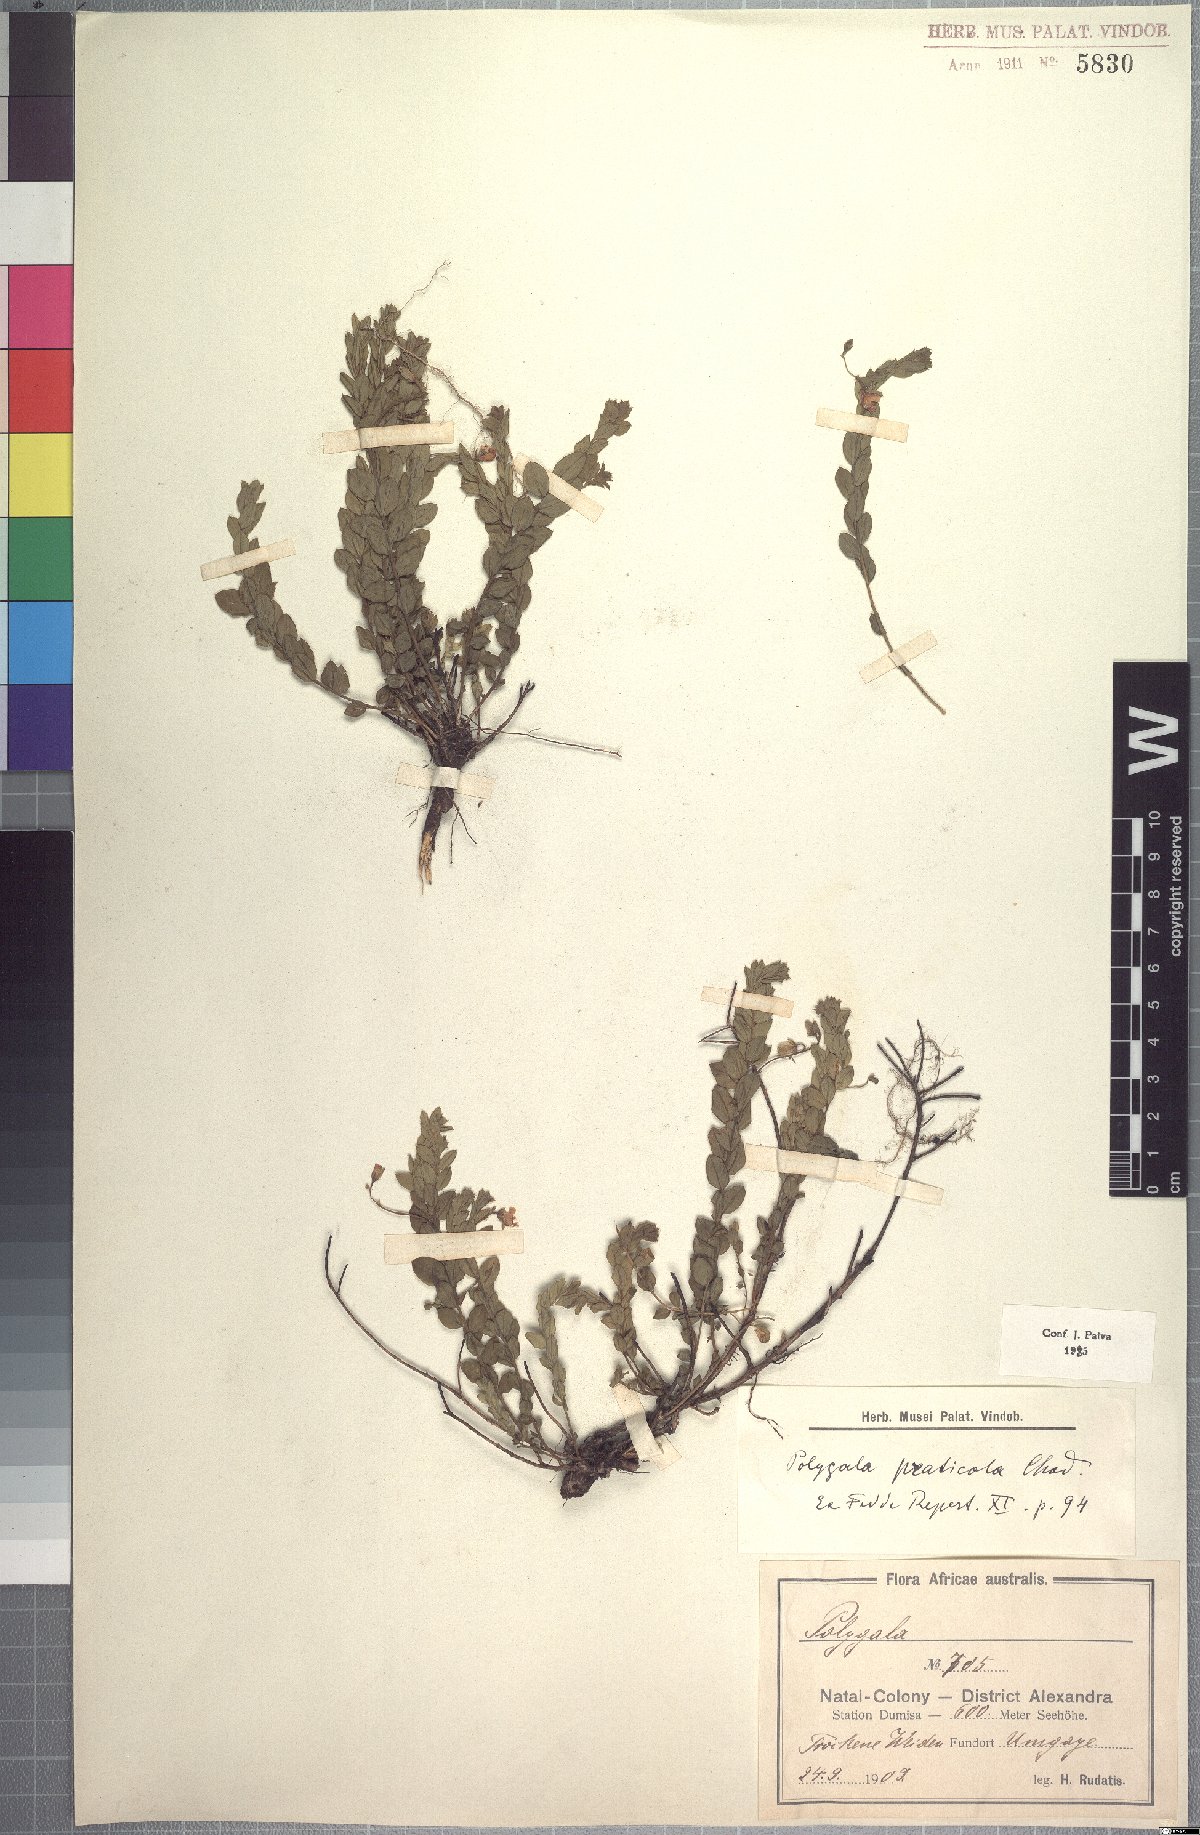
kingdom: Plantae
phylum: Tracheophyta
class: Magnoliopsida
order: Fabales
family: Polygalaceae
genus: Polygala
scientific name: Polygala praticola
